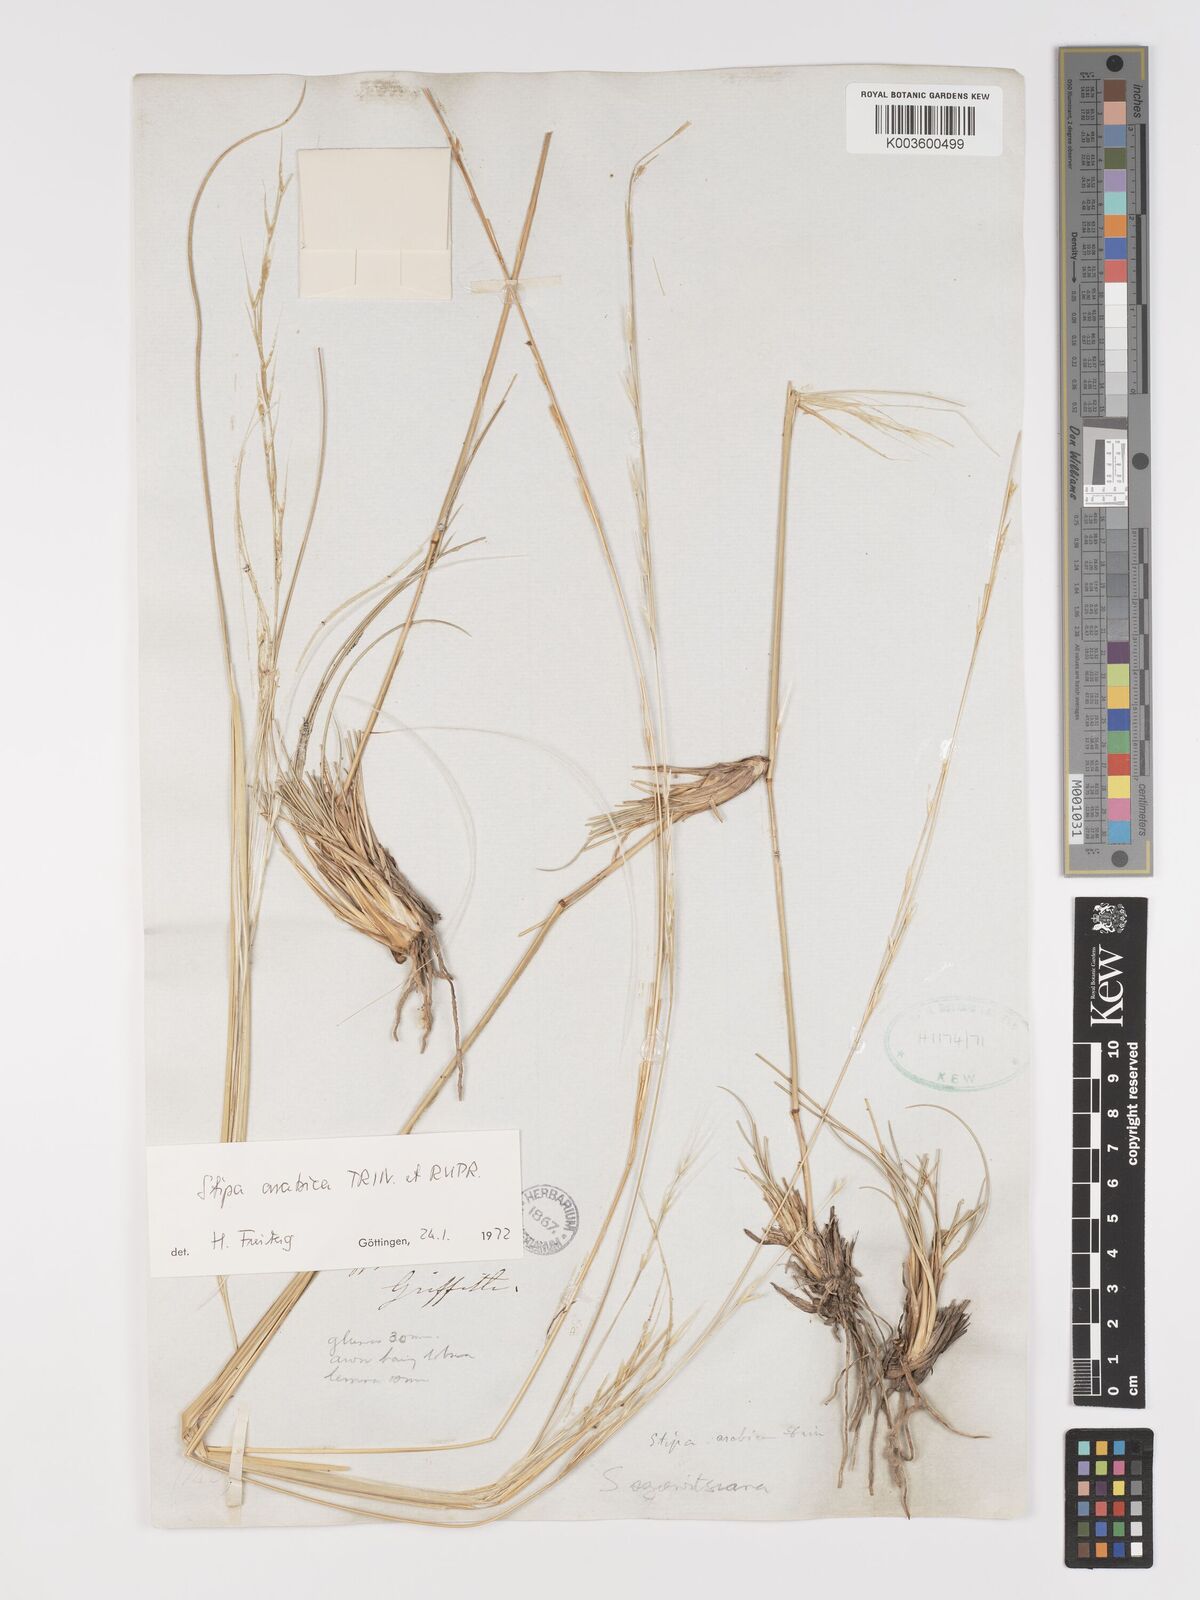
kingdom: Plantae
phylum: Tracheophyta
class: Liliopsida
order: Poales
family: Poaceae
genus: Stipa
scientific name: Stipa arabica
